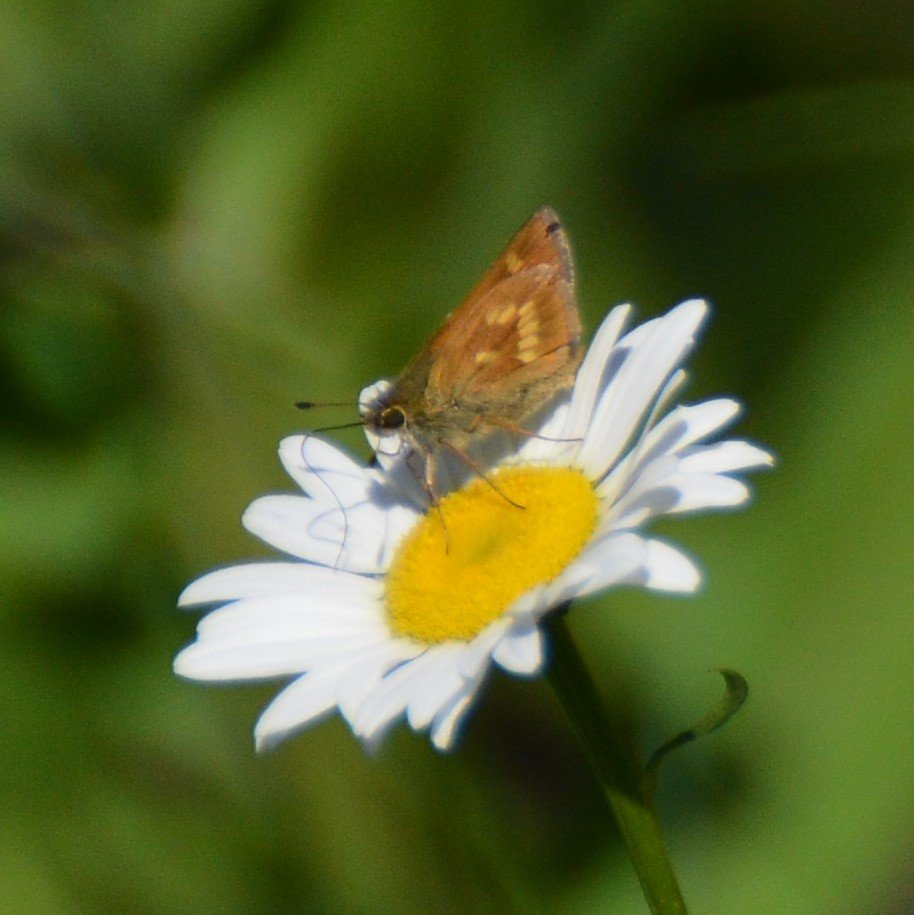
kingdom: Animalia
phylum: Arthropoda
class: Insecta
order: Lepidoptera
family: Hesperiidae
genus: Polites
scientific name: Polites
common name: Long Dash Skipper
